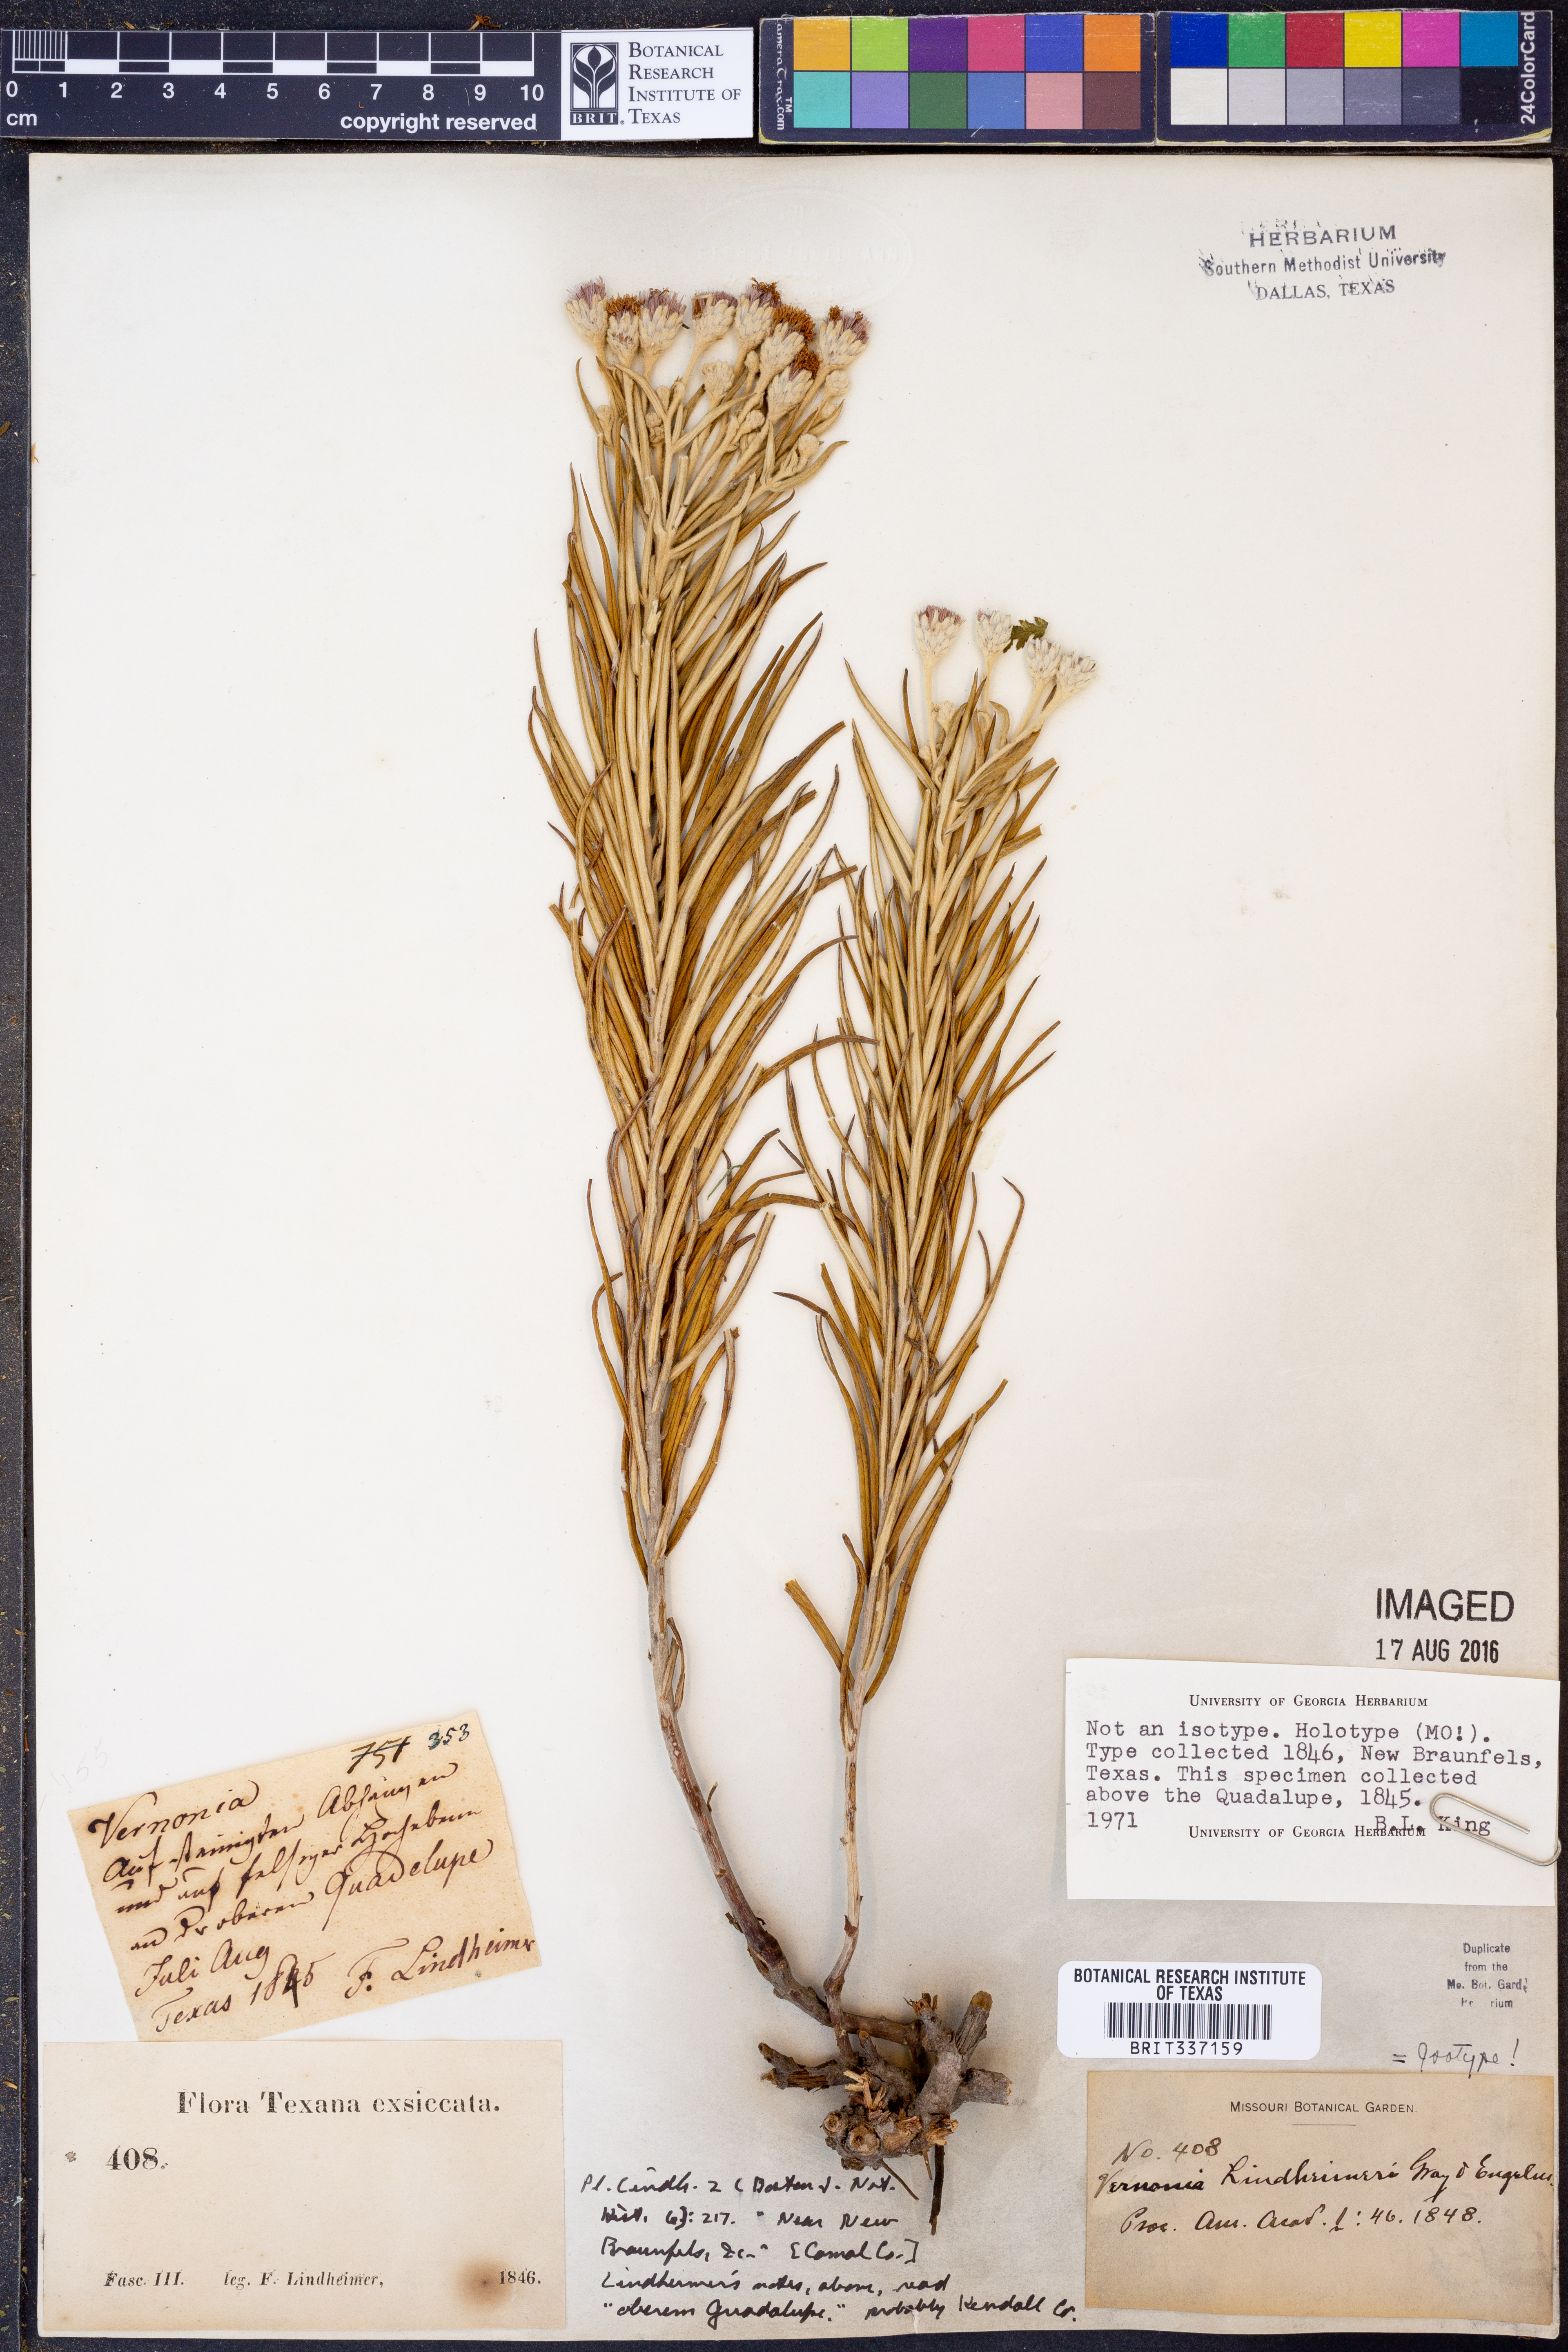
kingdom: Plantae
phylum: Tracheophyta
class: Magnoliopsida
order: Asterales
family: Asteraceae
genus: Vernonia
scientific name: Vernonia lindheimeri
